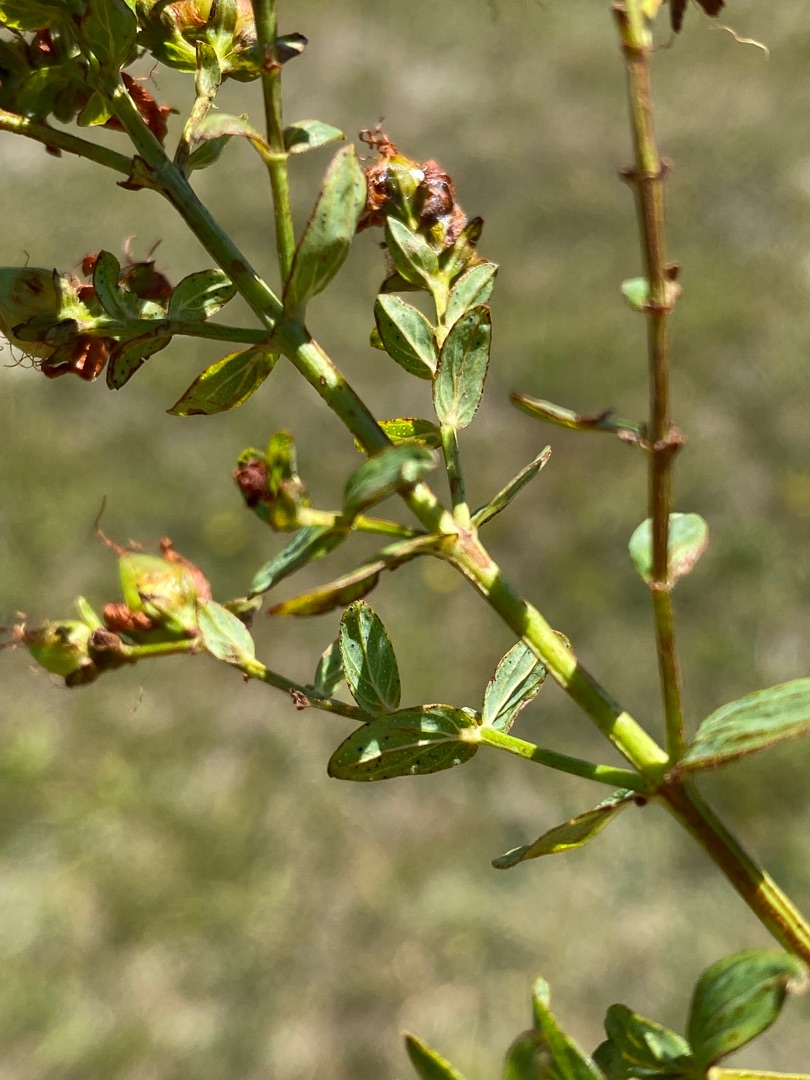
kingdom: Plantae
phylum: Tracheophyta
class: Magnoliopsida
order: Malpighiales
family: Hypericaceae
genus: Hypericum
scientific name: Hypericum perforatum
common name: Prikbladet perikon
